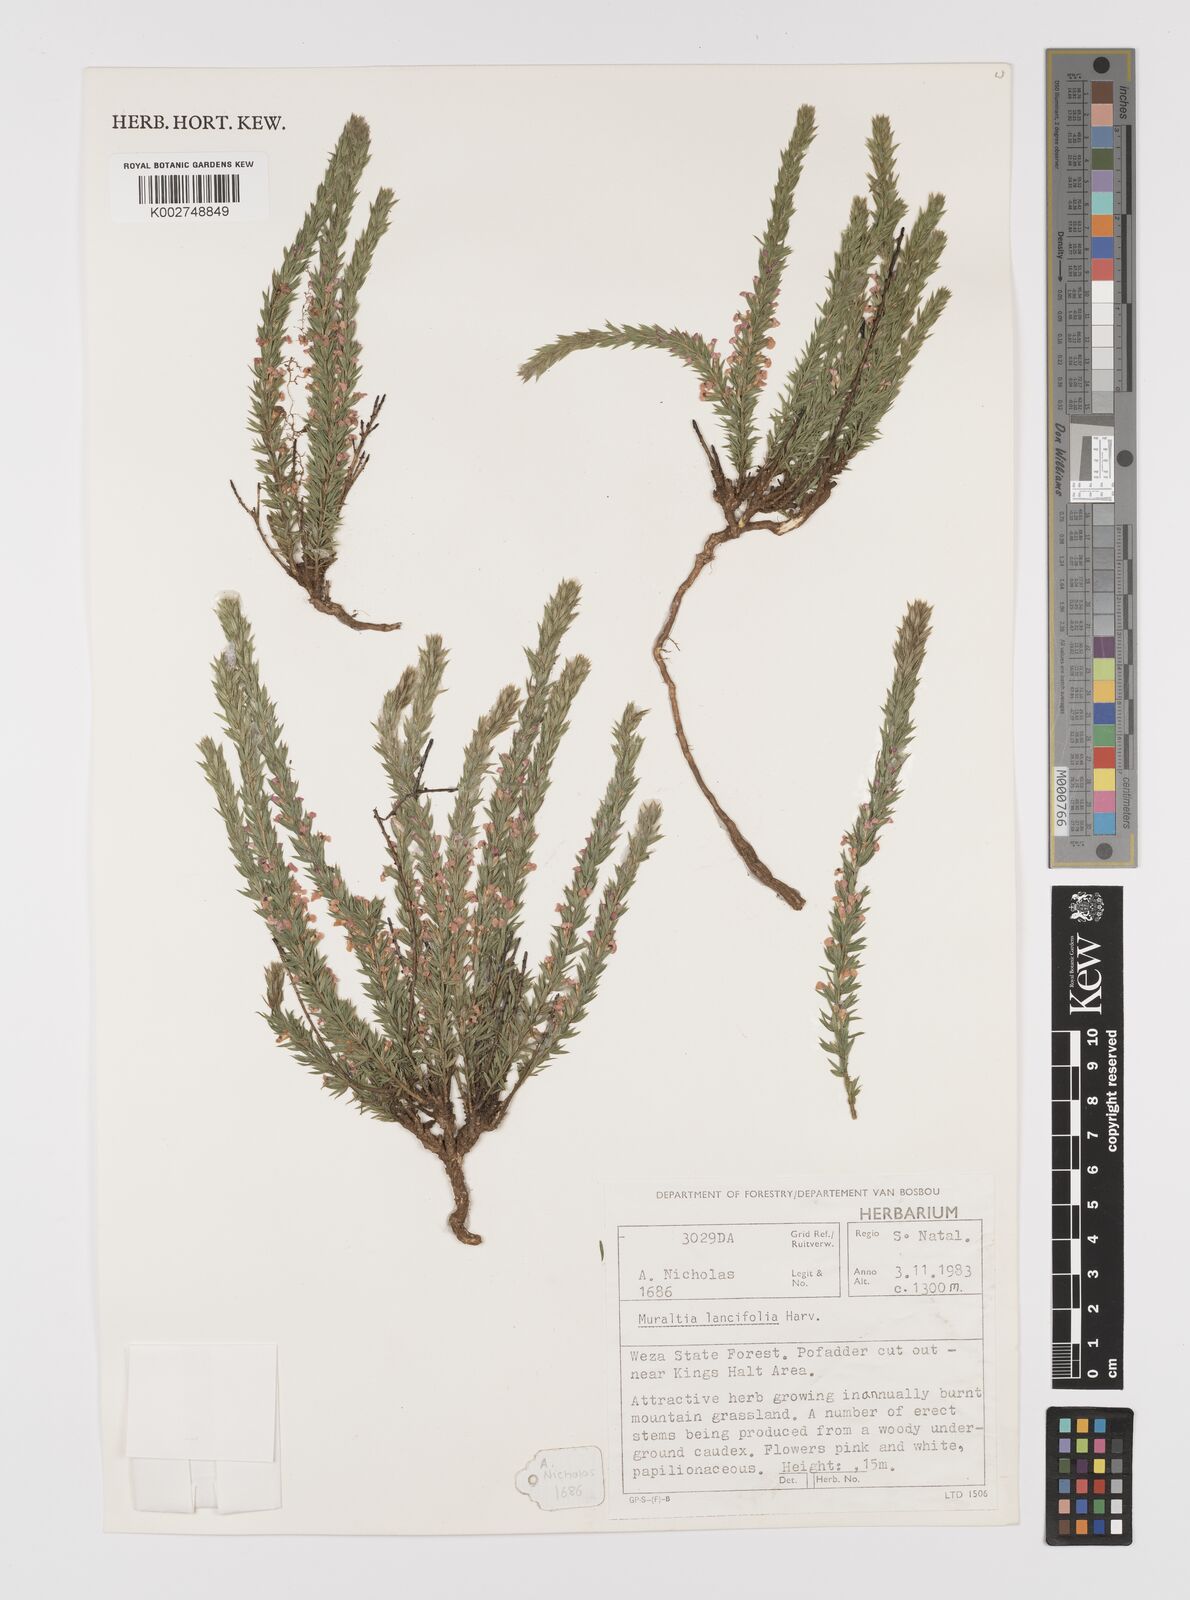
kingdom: Plantae
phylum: Tracheophyta
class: Magnoliopsida
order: Fabales
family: Polygalaceae
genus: Muraltia
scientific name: Muraltia lancifolia
